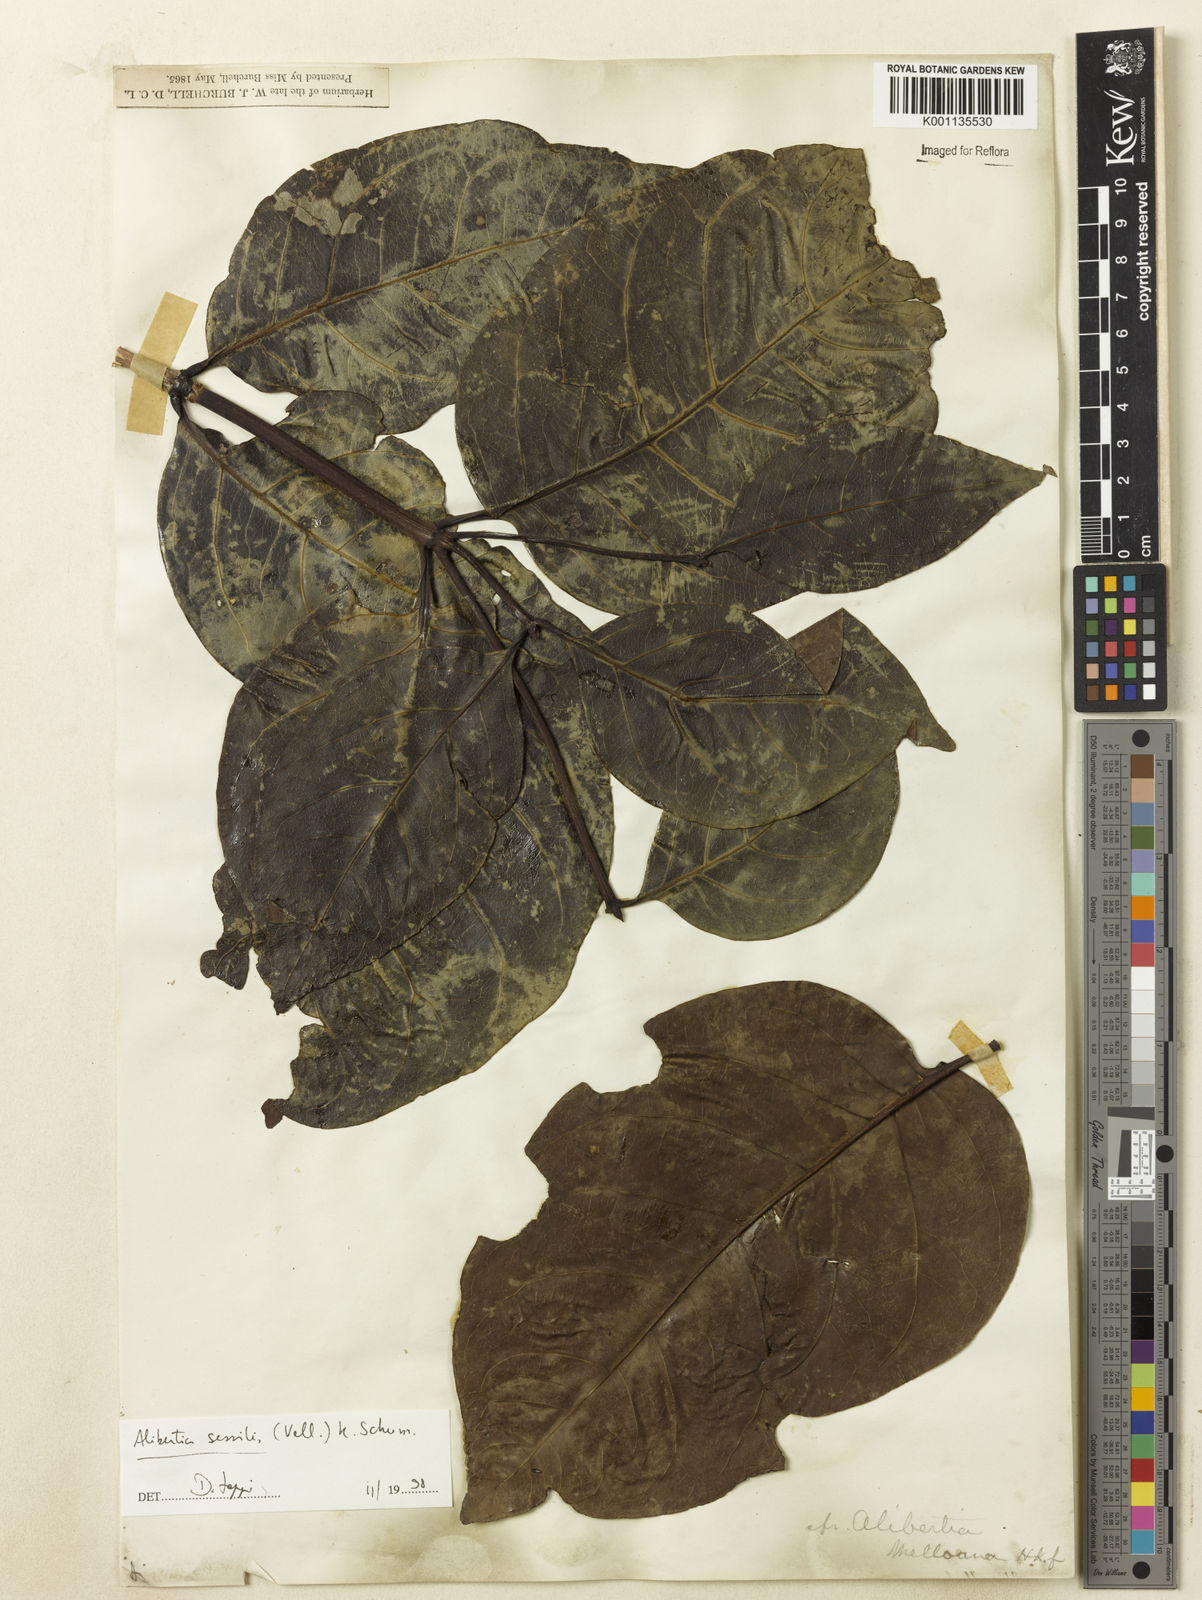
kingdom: Plantae
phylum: Tracheophyta
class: Magnoliopsida
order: Gentianales
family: Rubiaceae
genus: Cordiera
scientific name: Cordiera sessilis
